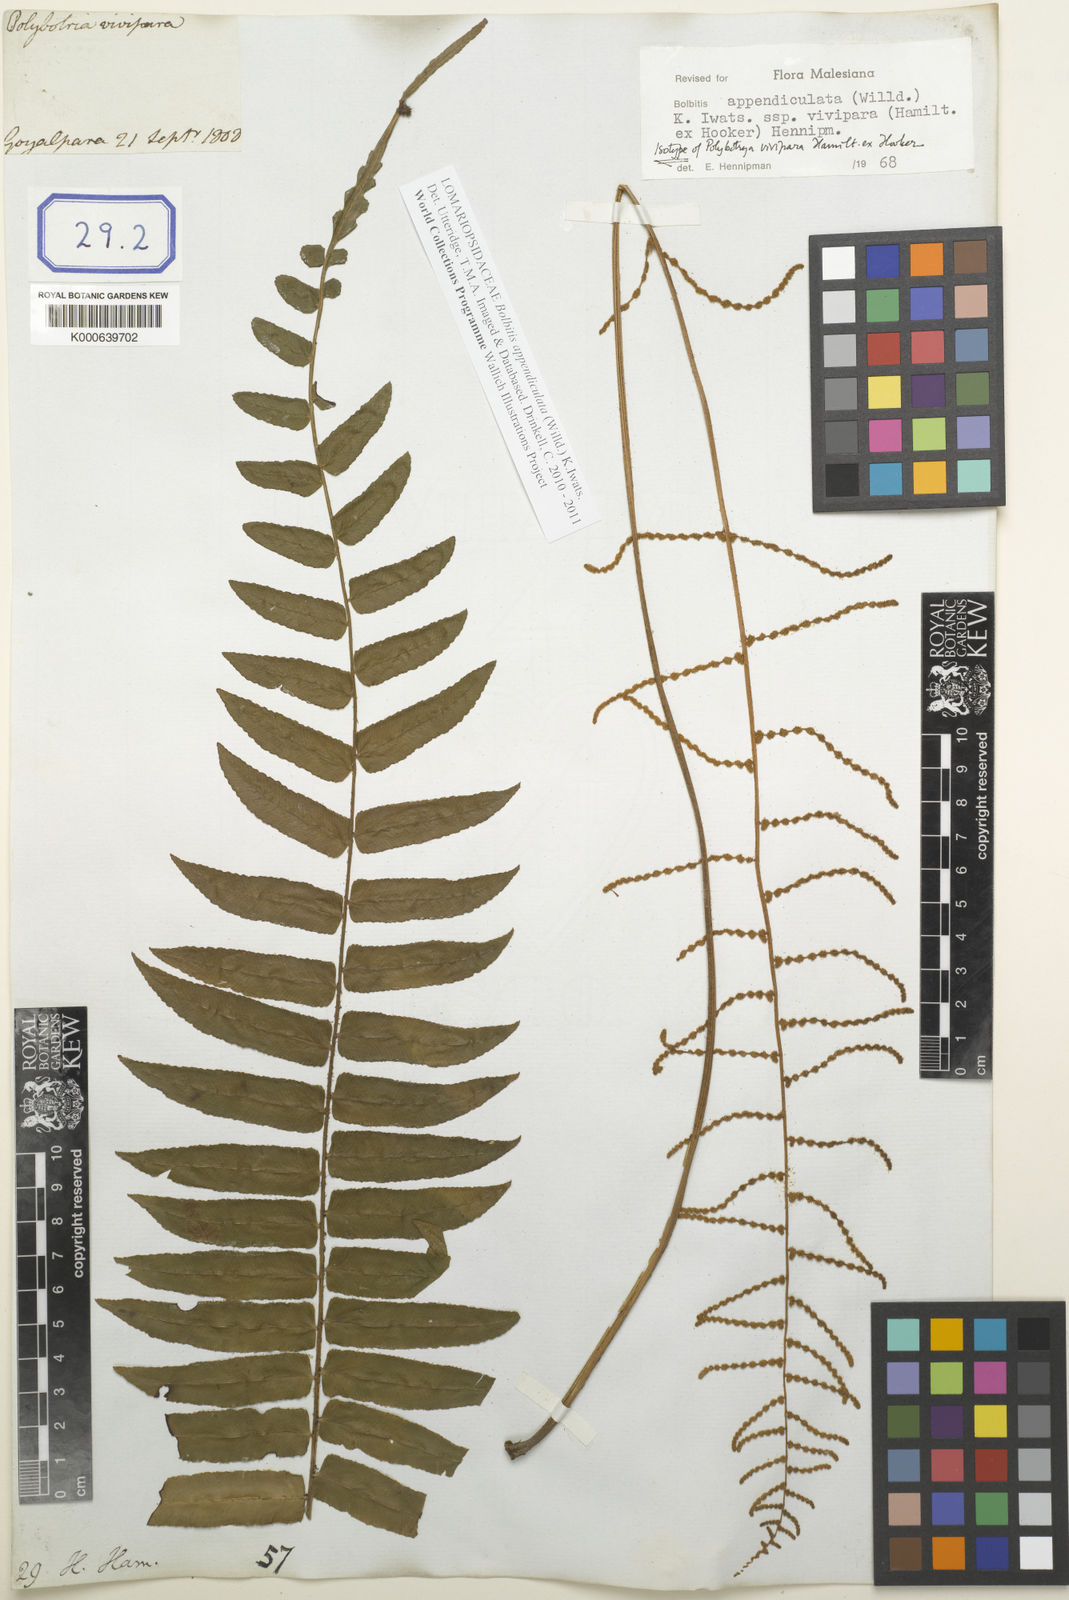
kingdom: Plantae
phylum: Tracheophyta
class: Polypodiopsida
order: Polypodiales
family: Pteridaceae
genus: Acrostichum
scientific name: Acrostichum
